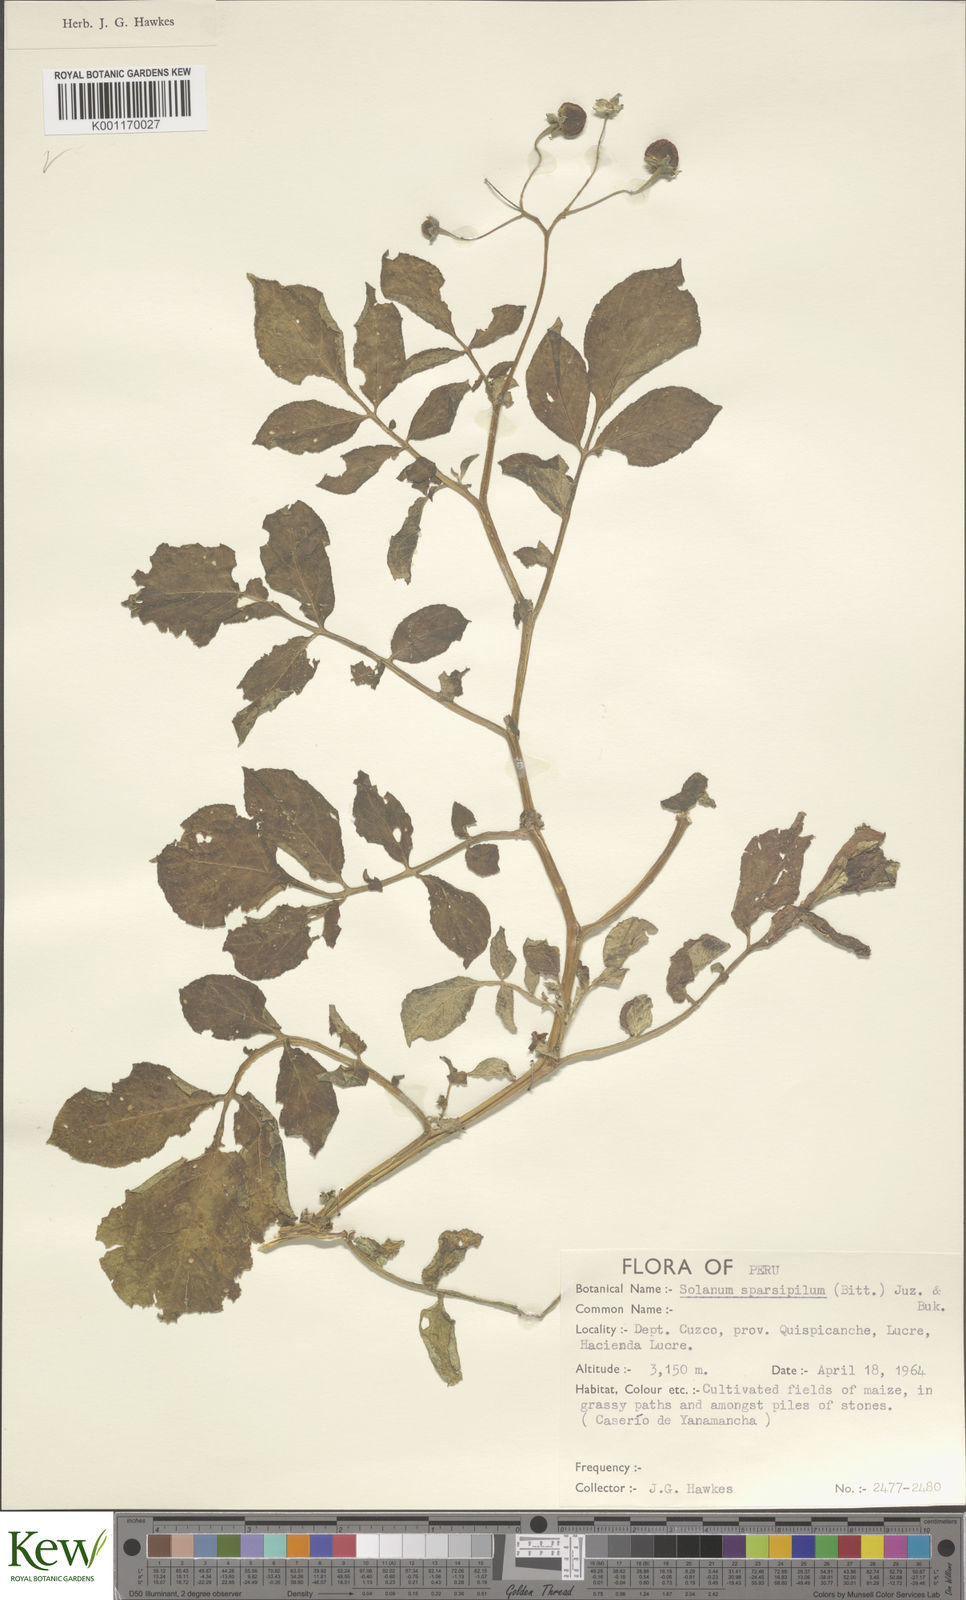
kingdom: Plantae
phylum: Tracheophyta
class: Magnoliopsida
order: Solanales
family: Solanaceae
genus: Solanum
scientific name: Solanum brevicaule
